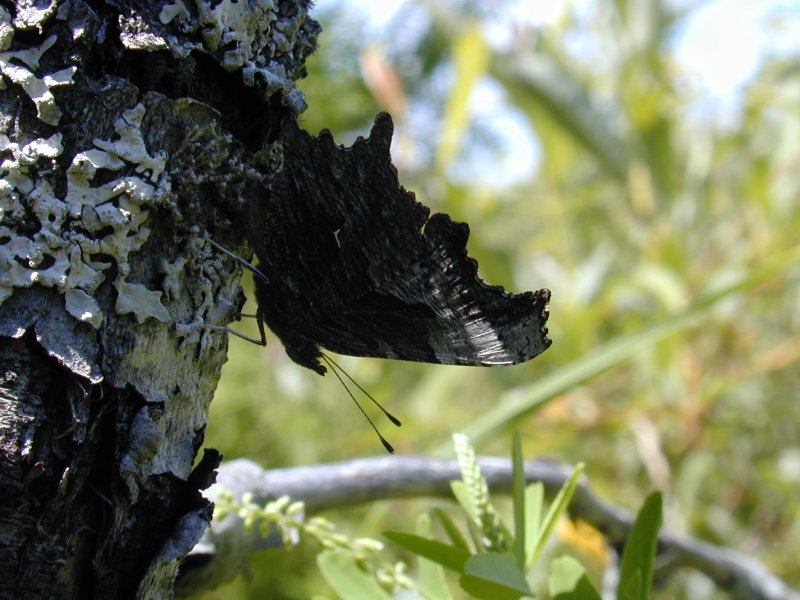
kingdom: Animalia
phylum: Arthropoda
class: Insecta
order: Lepidoptera
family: Nymphalidae
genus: Polygonia
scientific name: Polygonia progne
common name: Gray Comma
